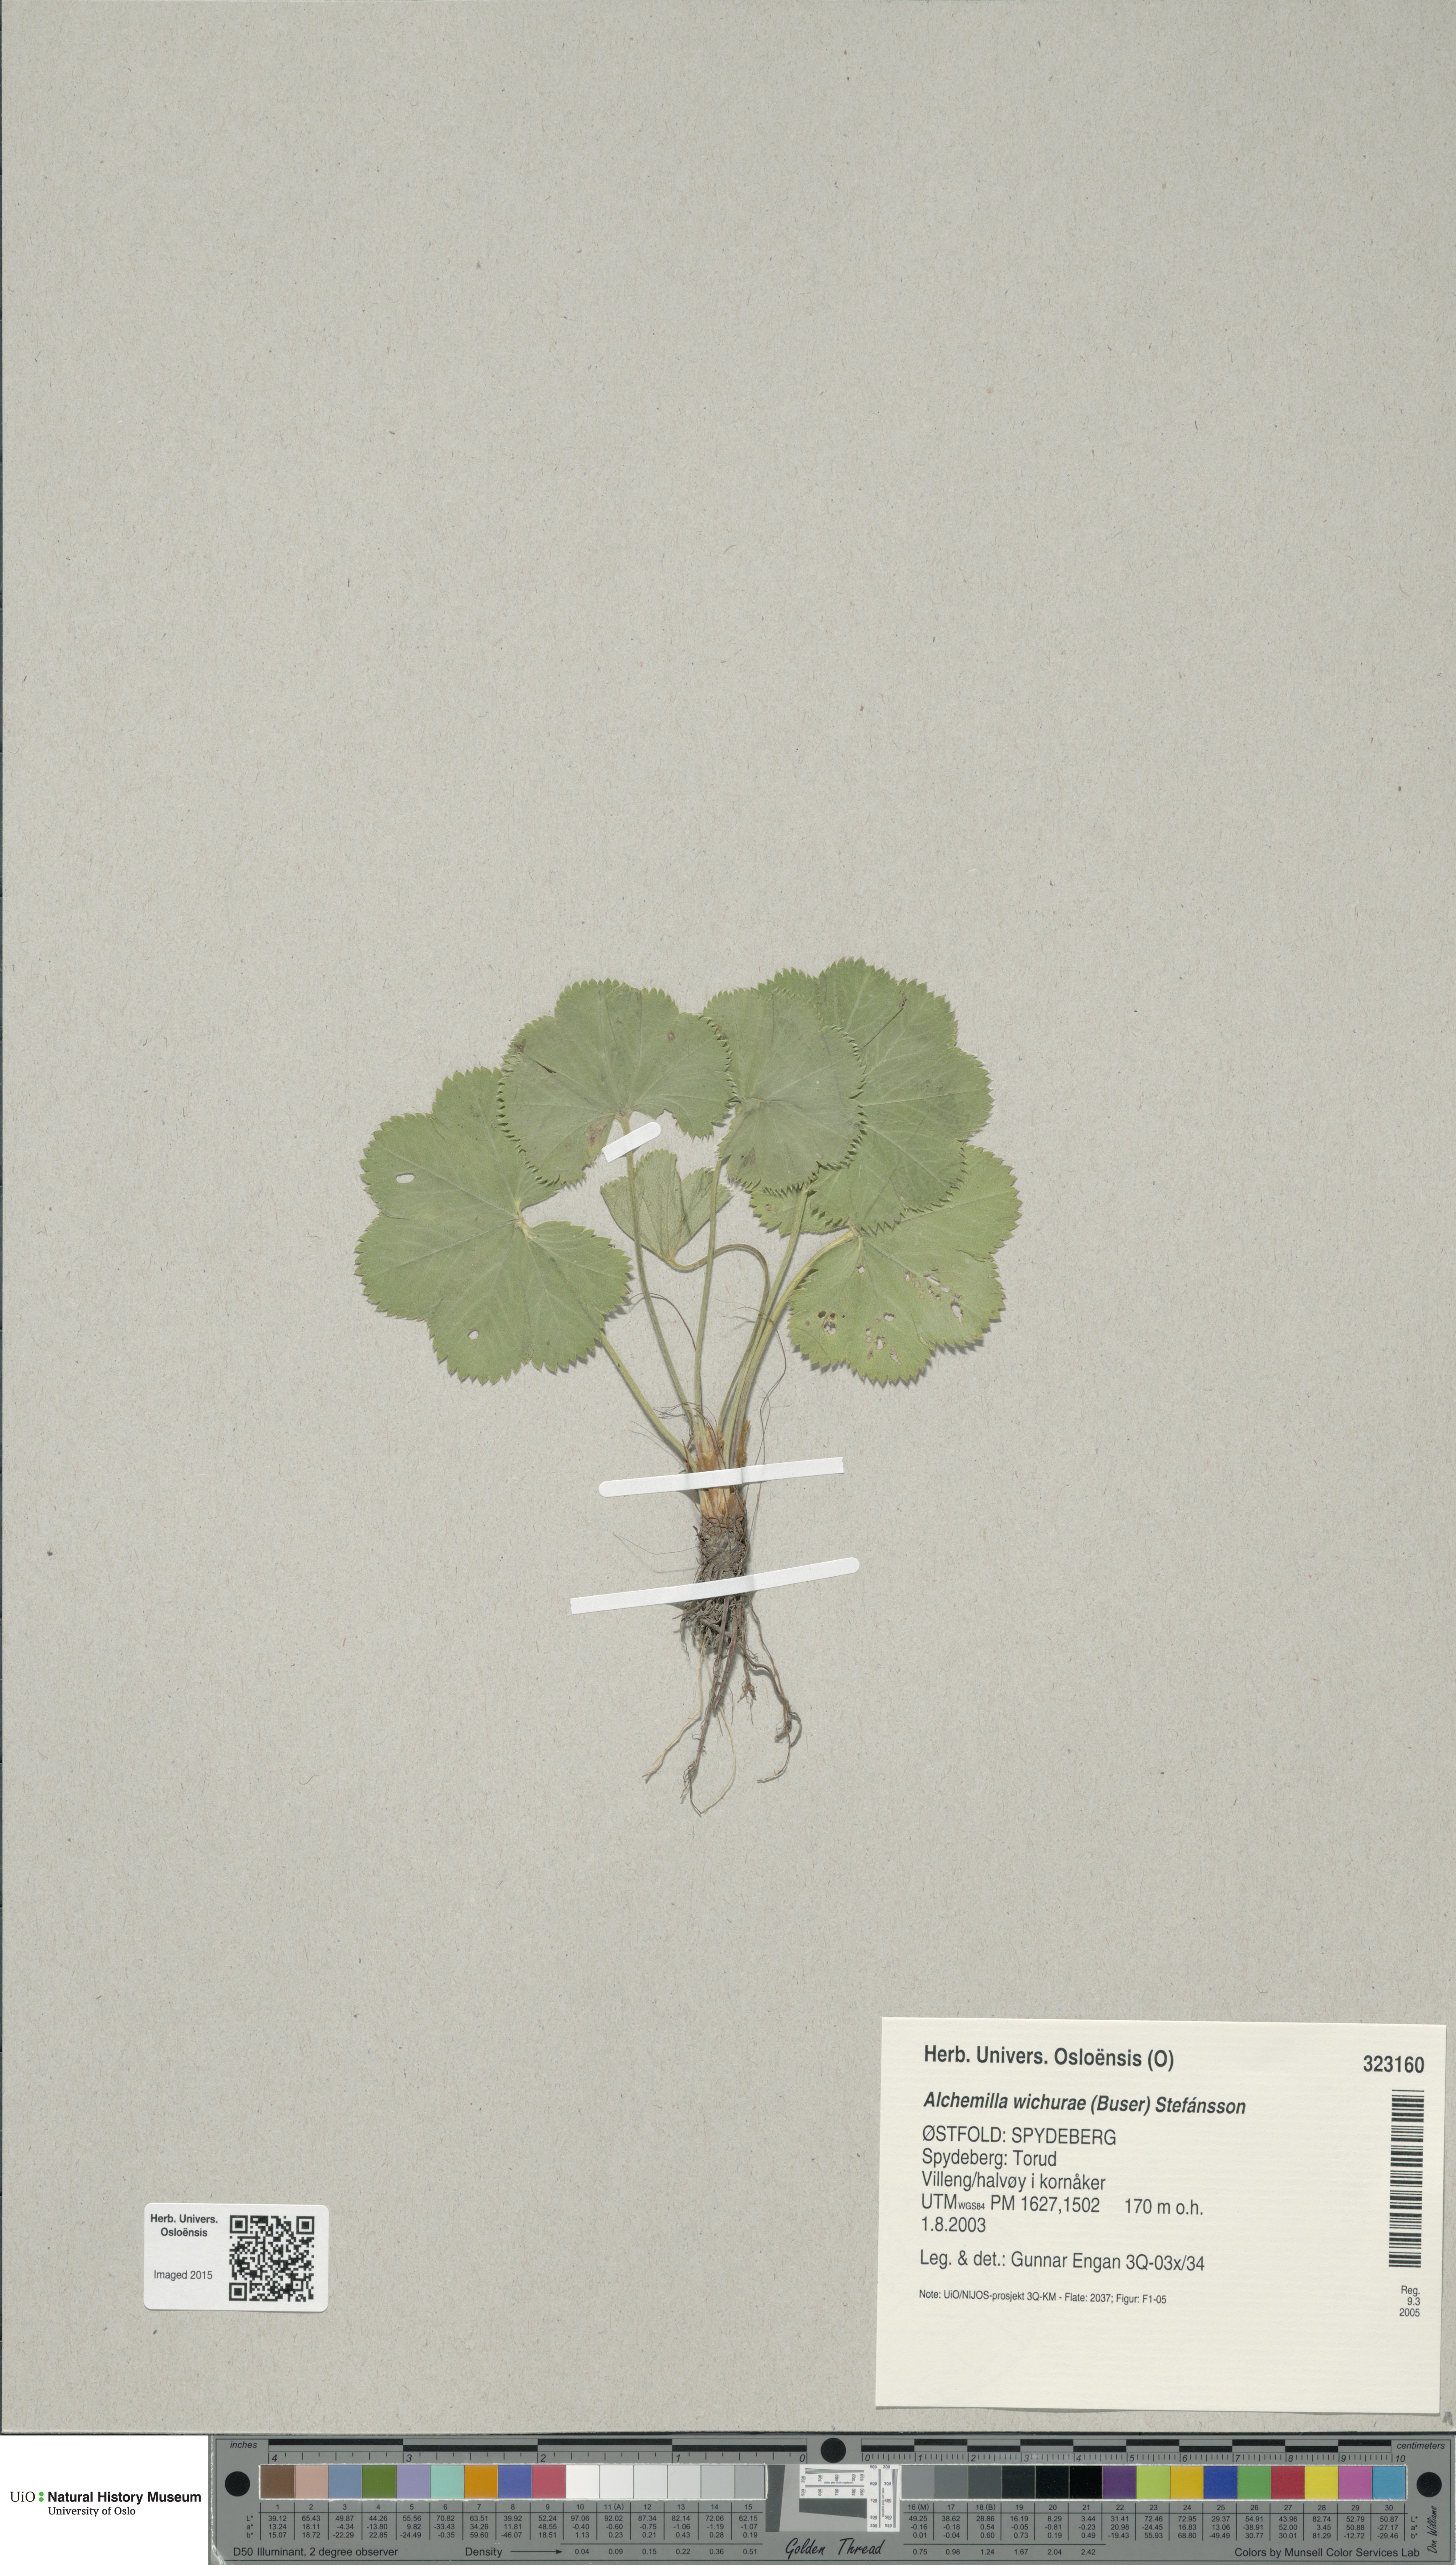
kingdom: Plantae
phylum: Tracheophyta
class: Magnoliopsida
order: Rosales
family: Rosaceae
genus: Alchemilla
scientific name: Alchemilla wichurae
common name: Rock lady's mantle
